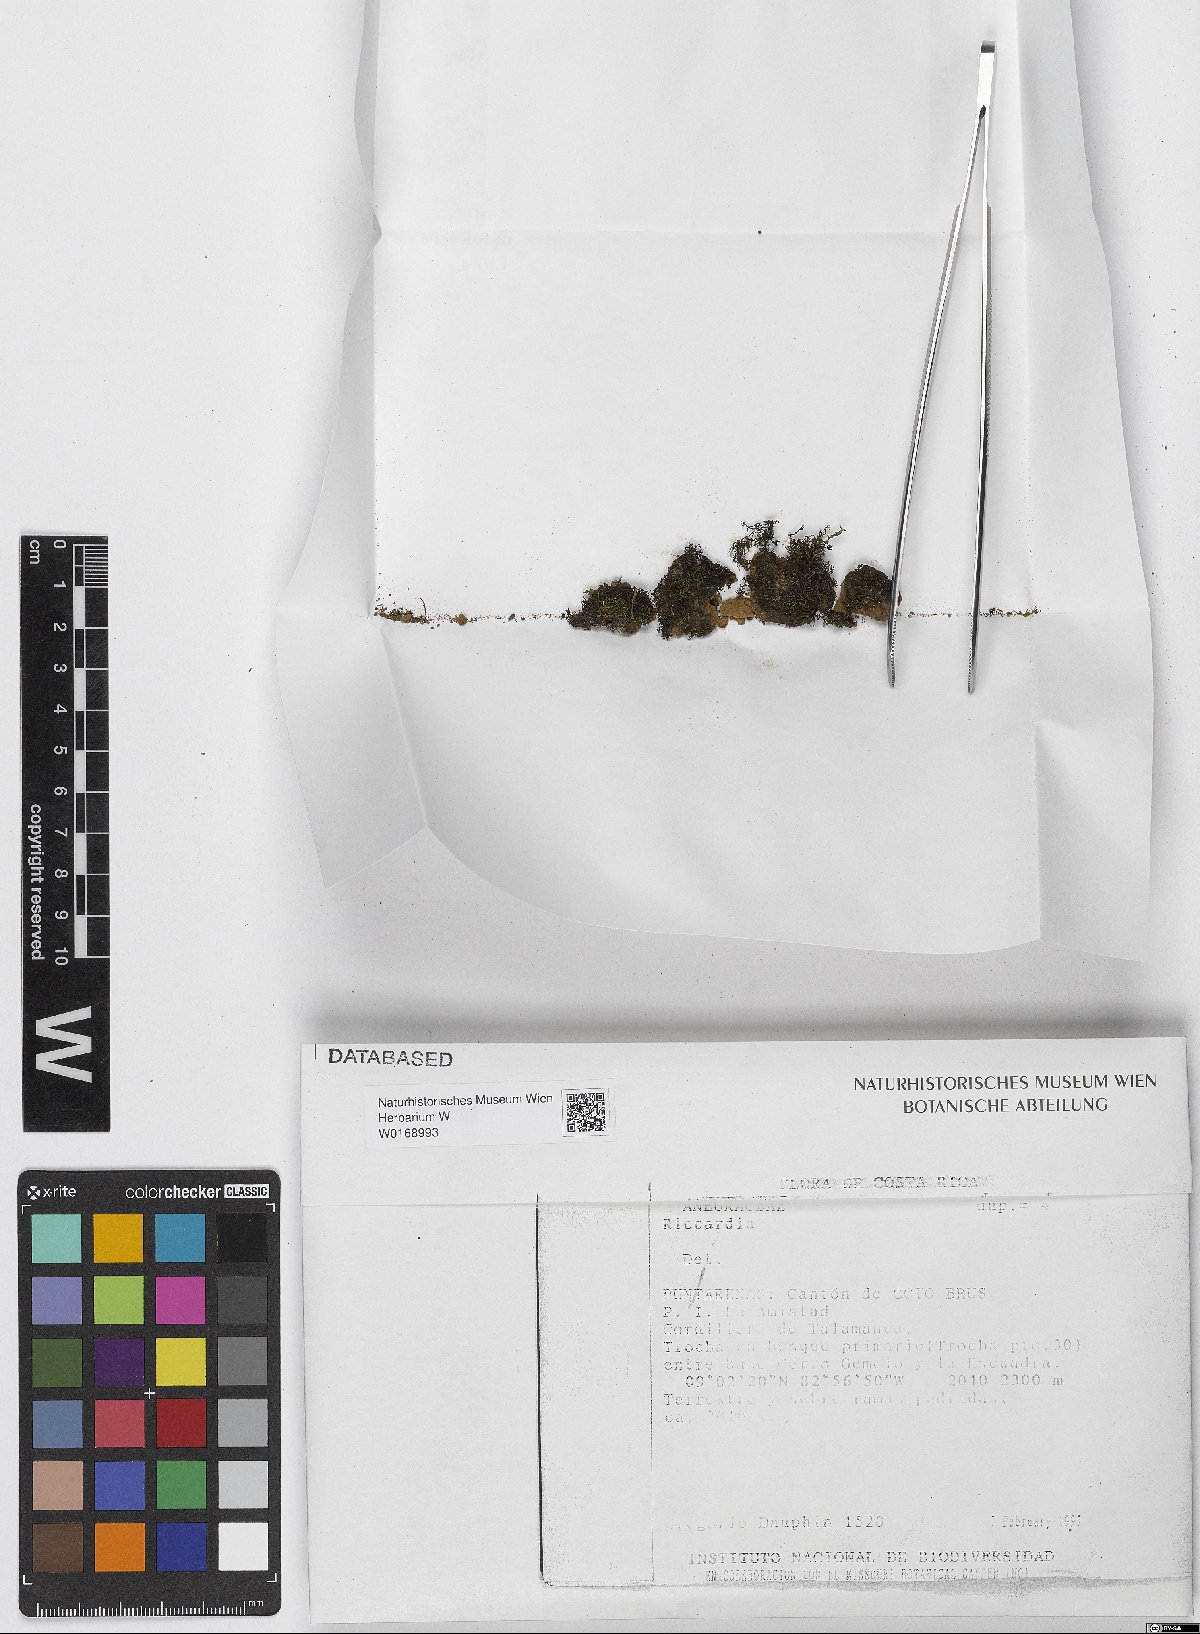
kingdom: Plantae
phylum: Marchantiophyta
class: Jungermanniopsida
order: Metzgeriales
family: Aneuraceae
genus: Riccardia
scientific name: Riccardia
